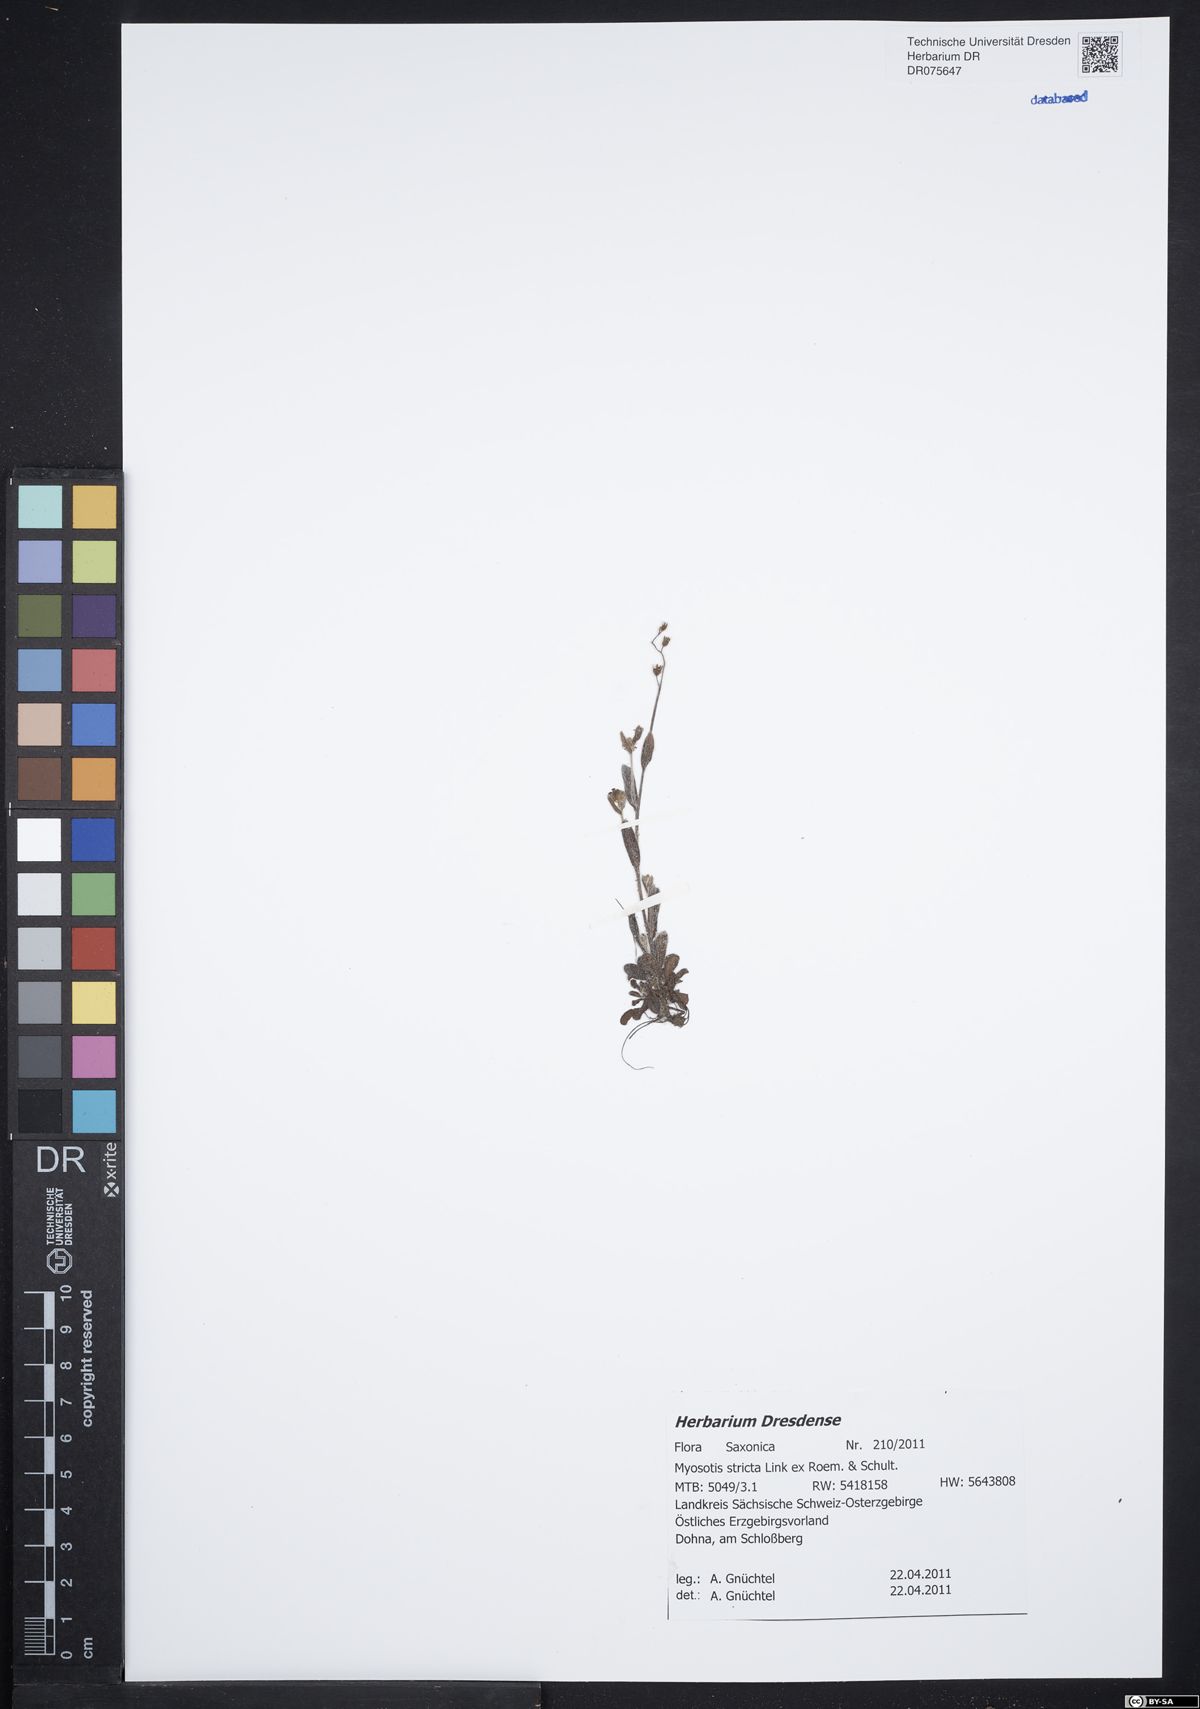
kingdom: Plantae
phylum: Tracheophyta
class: Magnoliopsida
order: Boraginales
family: Boraginaceae
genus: Myosotis
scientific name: Myosotis stricta
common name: Strict forget-me-not
